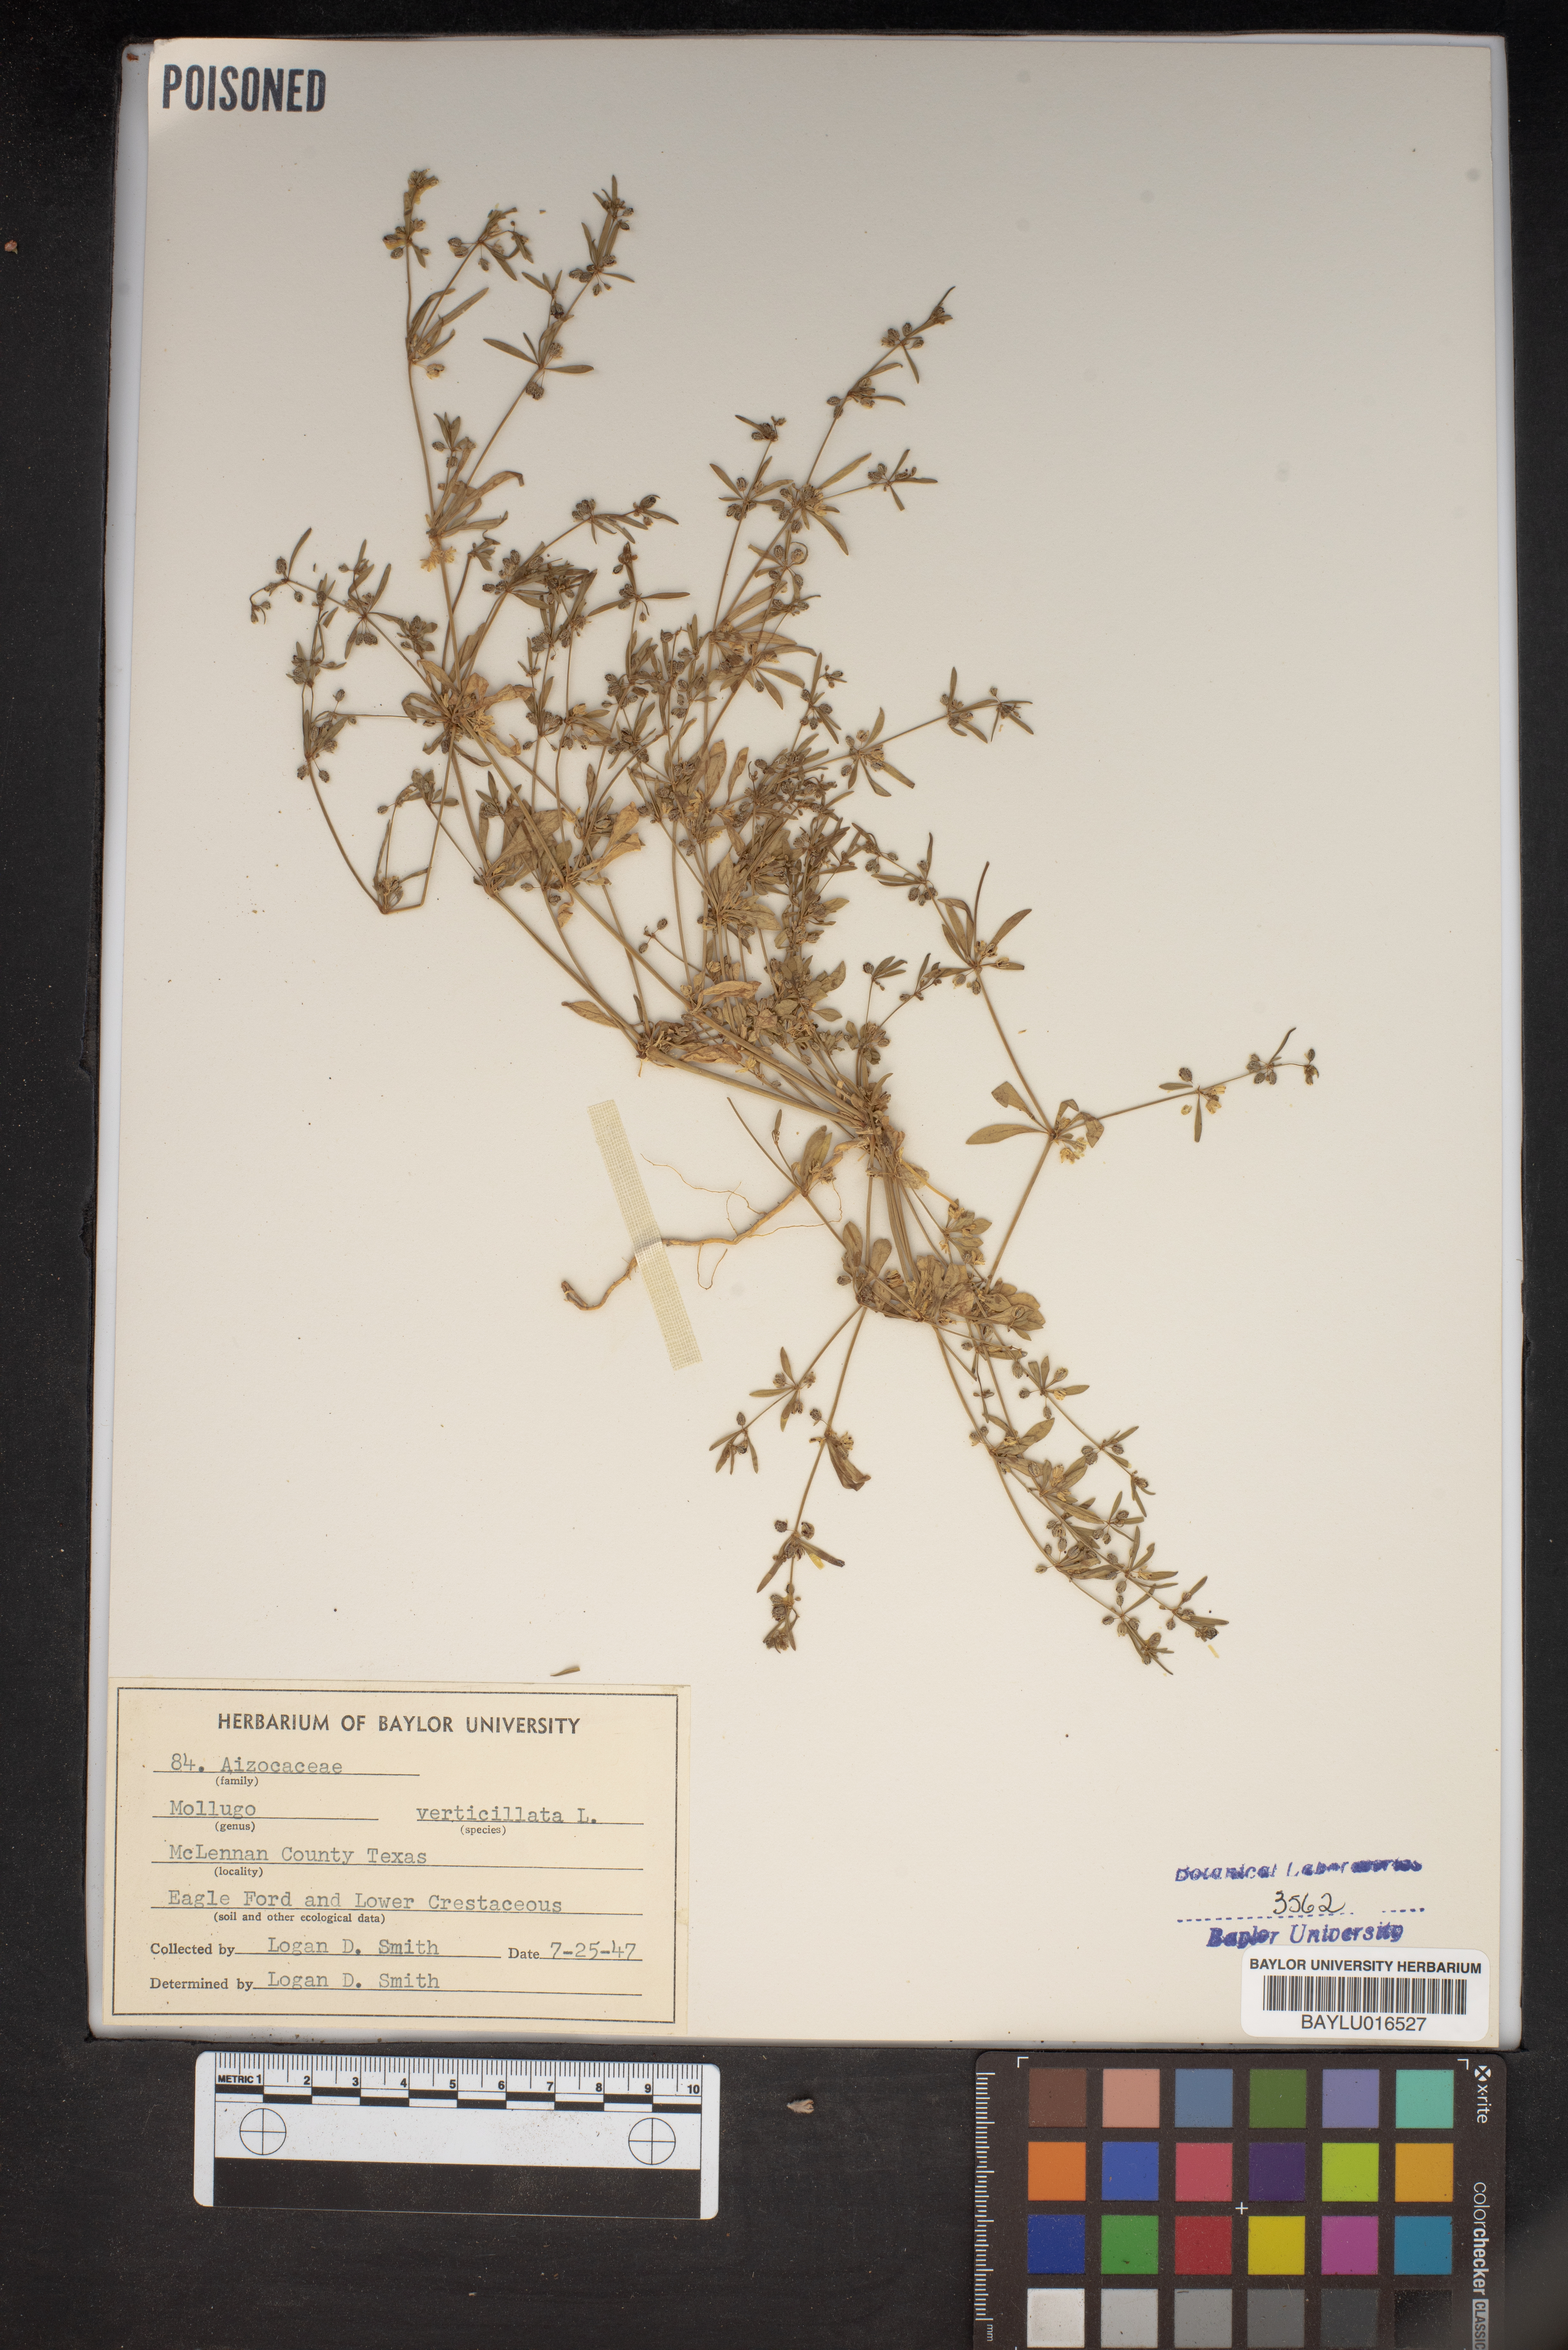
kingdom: Plantae
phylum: Tracheophyta
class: Magnoliopsida
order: Caryophyllales
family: Molluginaceae
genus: Mollugo
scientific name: Mollugo verticillata
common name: Green carpetweed
